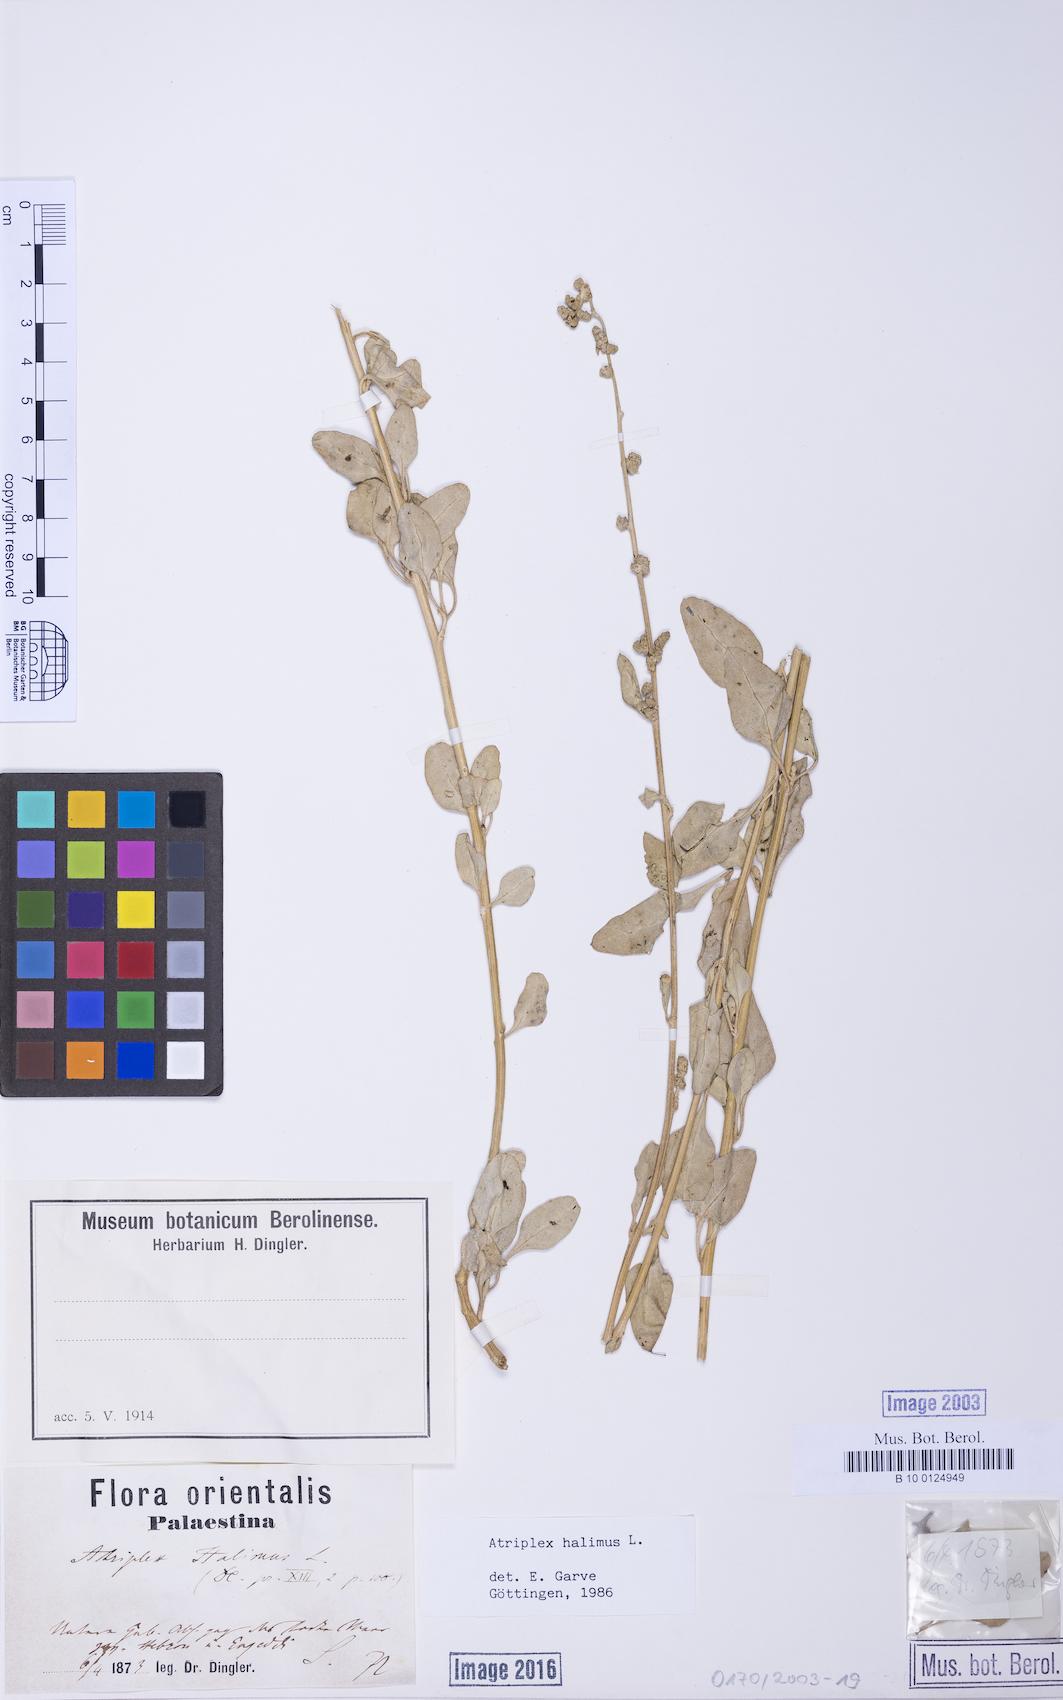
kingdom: Plantae
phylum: Tracheophyta
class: Magnoliopsida
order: Caryophyllales
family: Amaranthaceae
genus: Atriplex
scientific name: Atriplex halimus
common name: Shrubby orache
